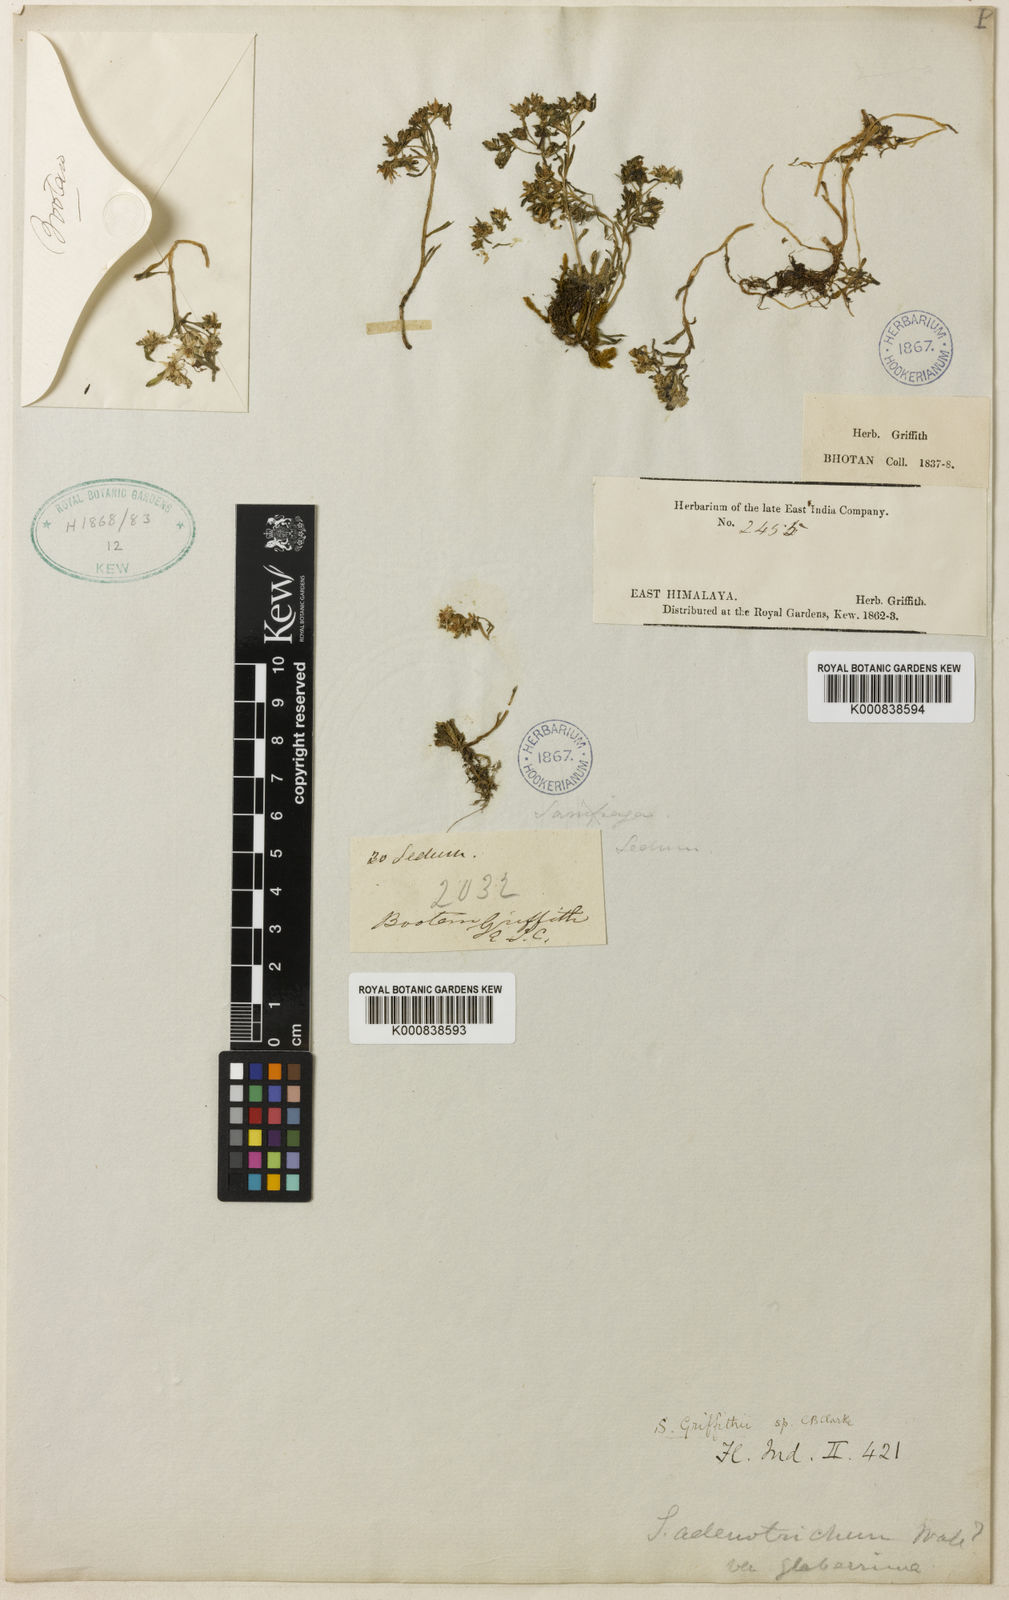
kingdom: Plantae
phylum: Tracheophyta
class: Magnoliopsida
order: Saxifragales
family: Crassulaceae
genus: Rosularia
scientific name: Rosularia adenotricha
